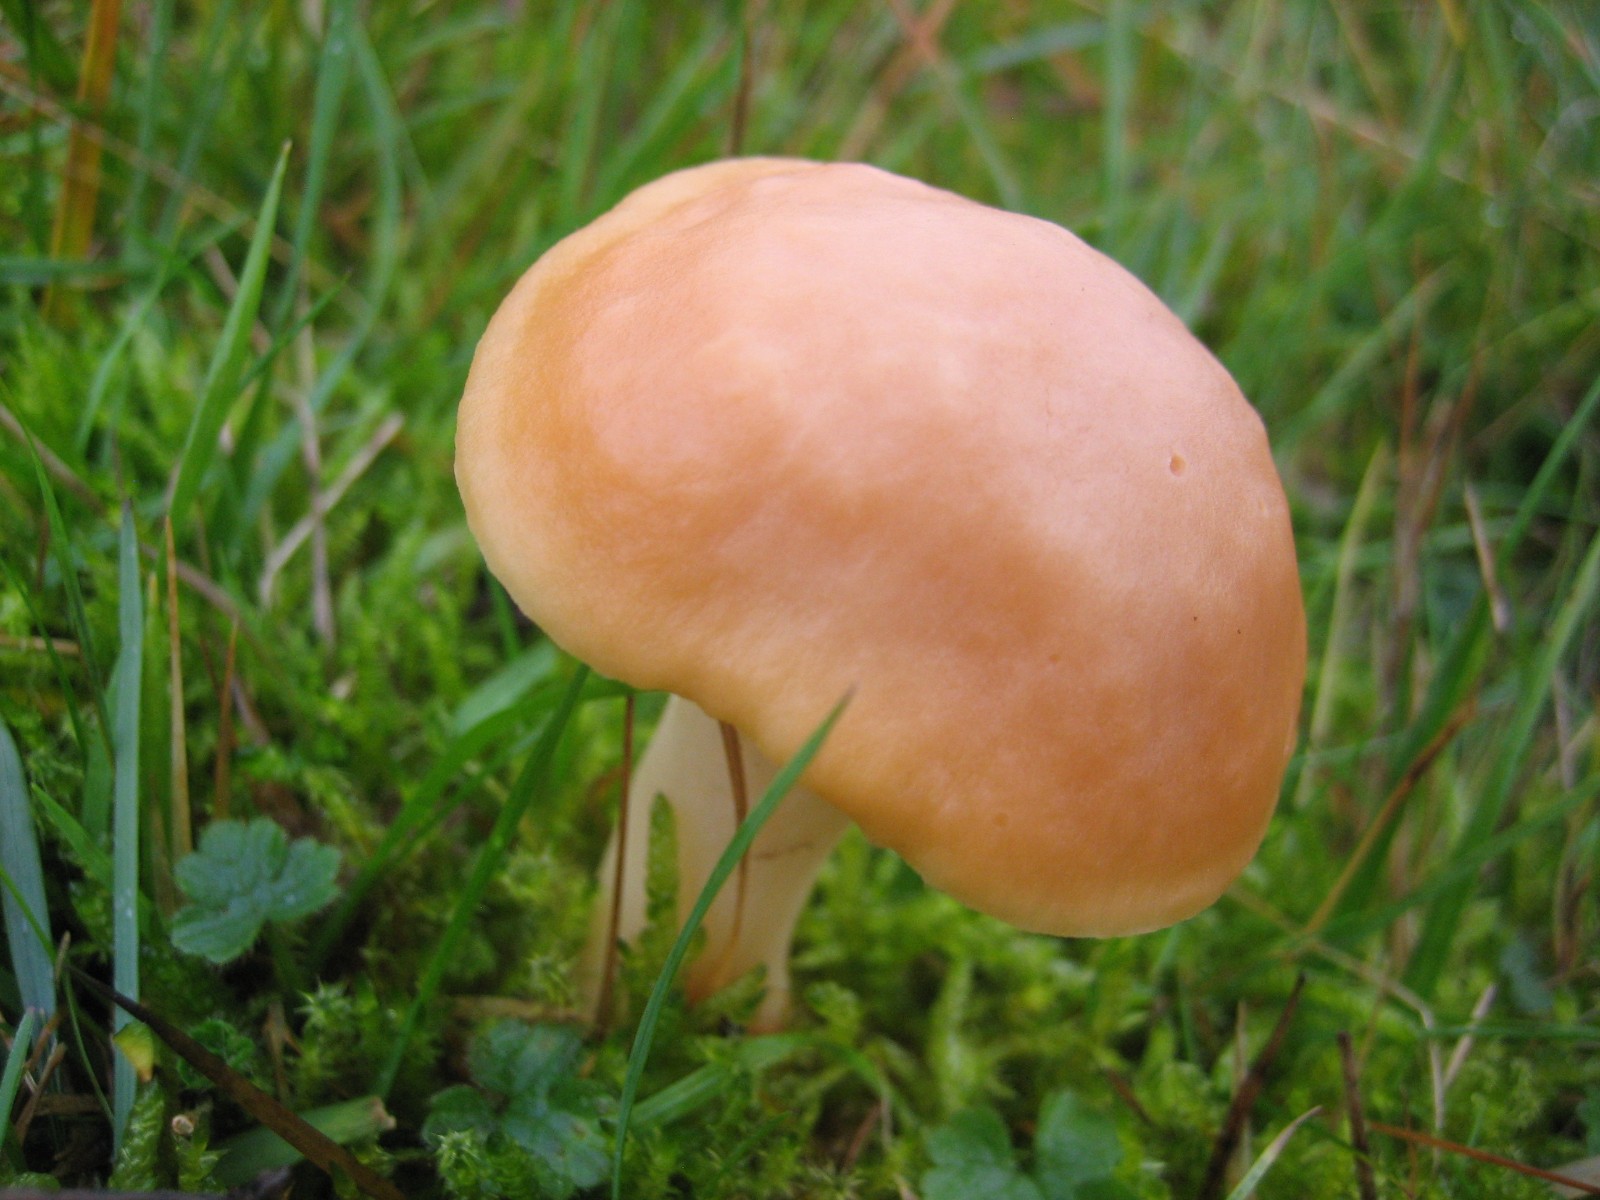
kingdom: Fungi
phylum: Basidiomycota
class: Agaricomycetes
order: Agaricales
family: Hygrophoraceae
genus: Cuphophyllus
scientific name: Cuphophyllus pratensis
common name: eng-vokshat
